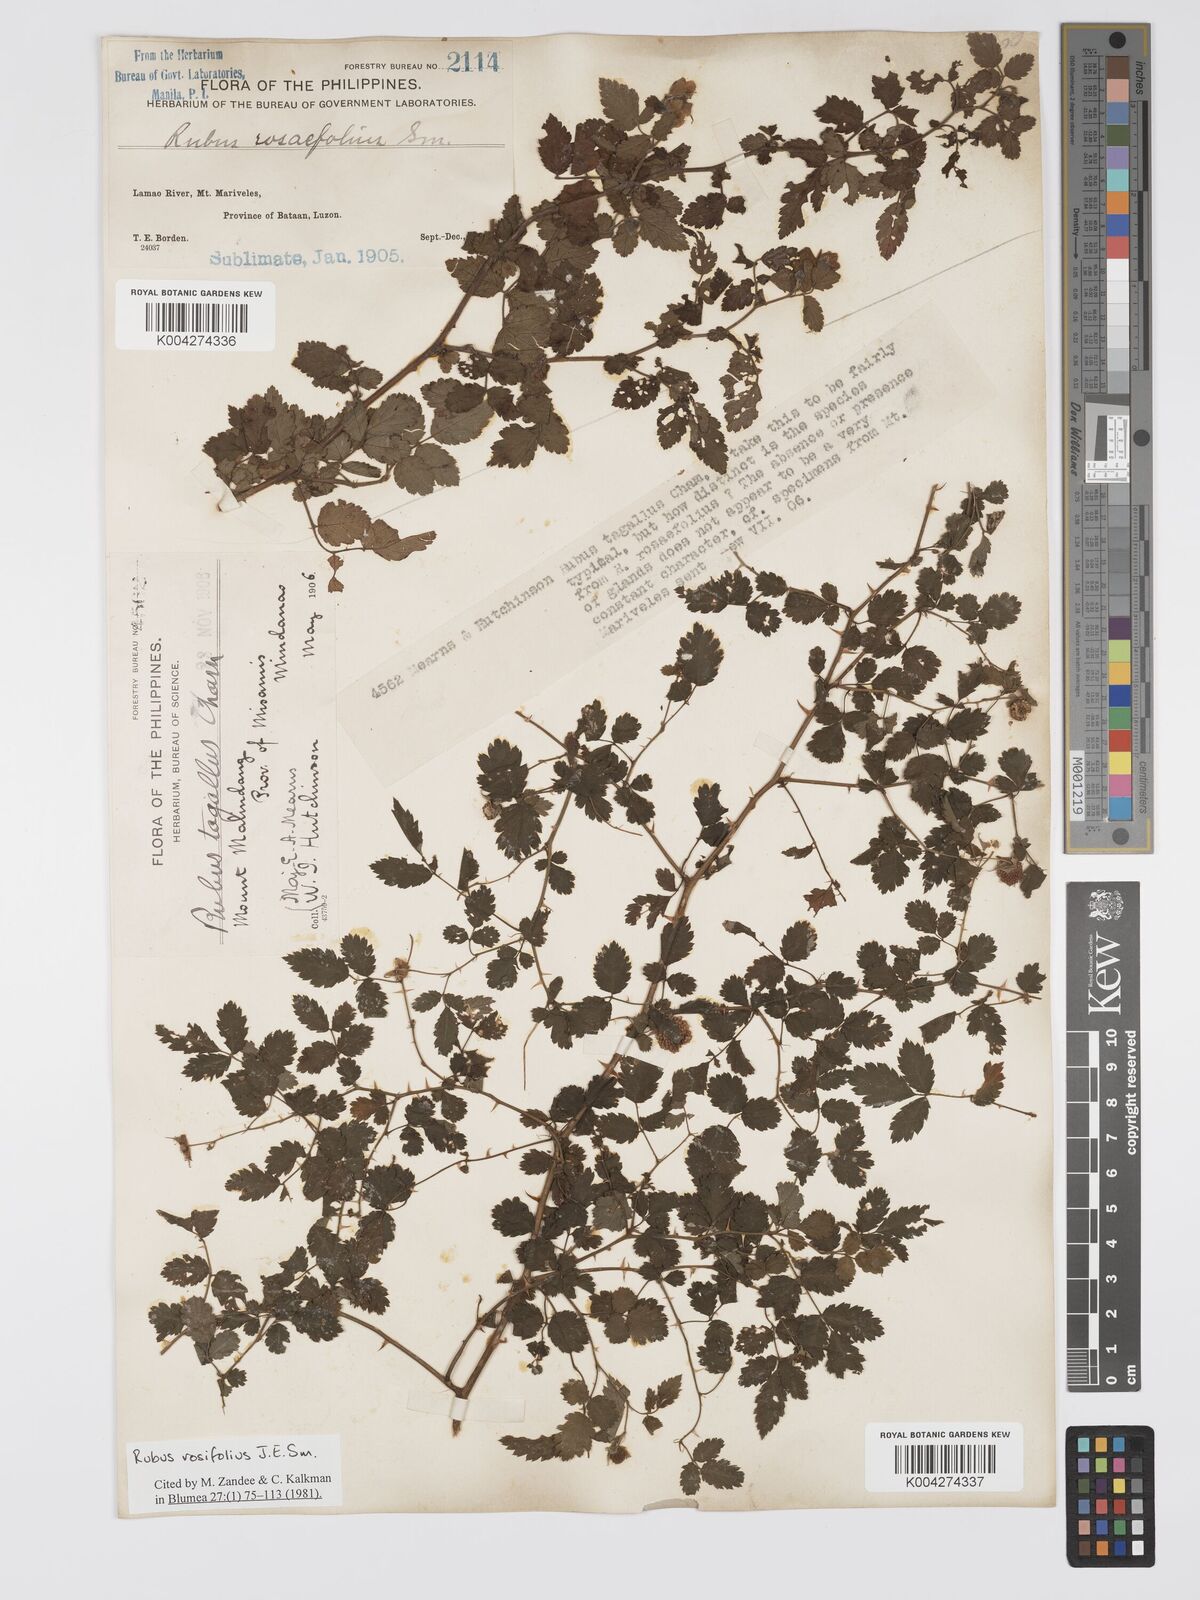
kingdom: Plantae
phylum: Tracheophyta
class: Magnoliopsida
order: Rosales
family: Rosaceae
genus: Rubus
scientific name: Rubus
